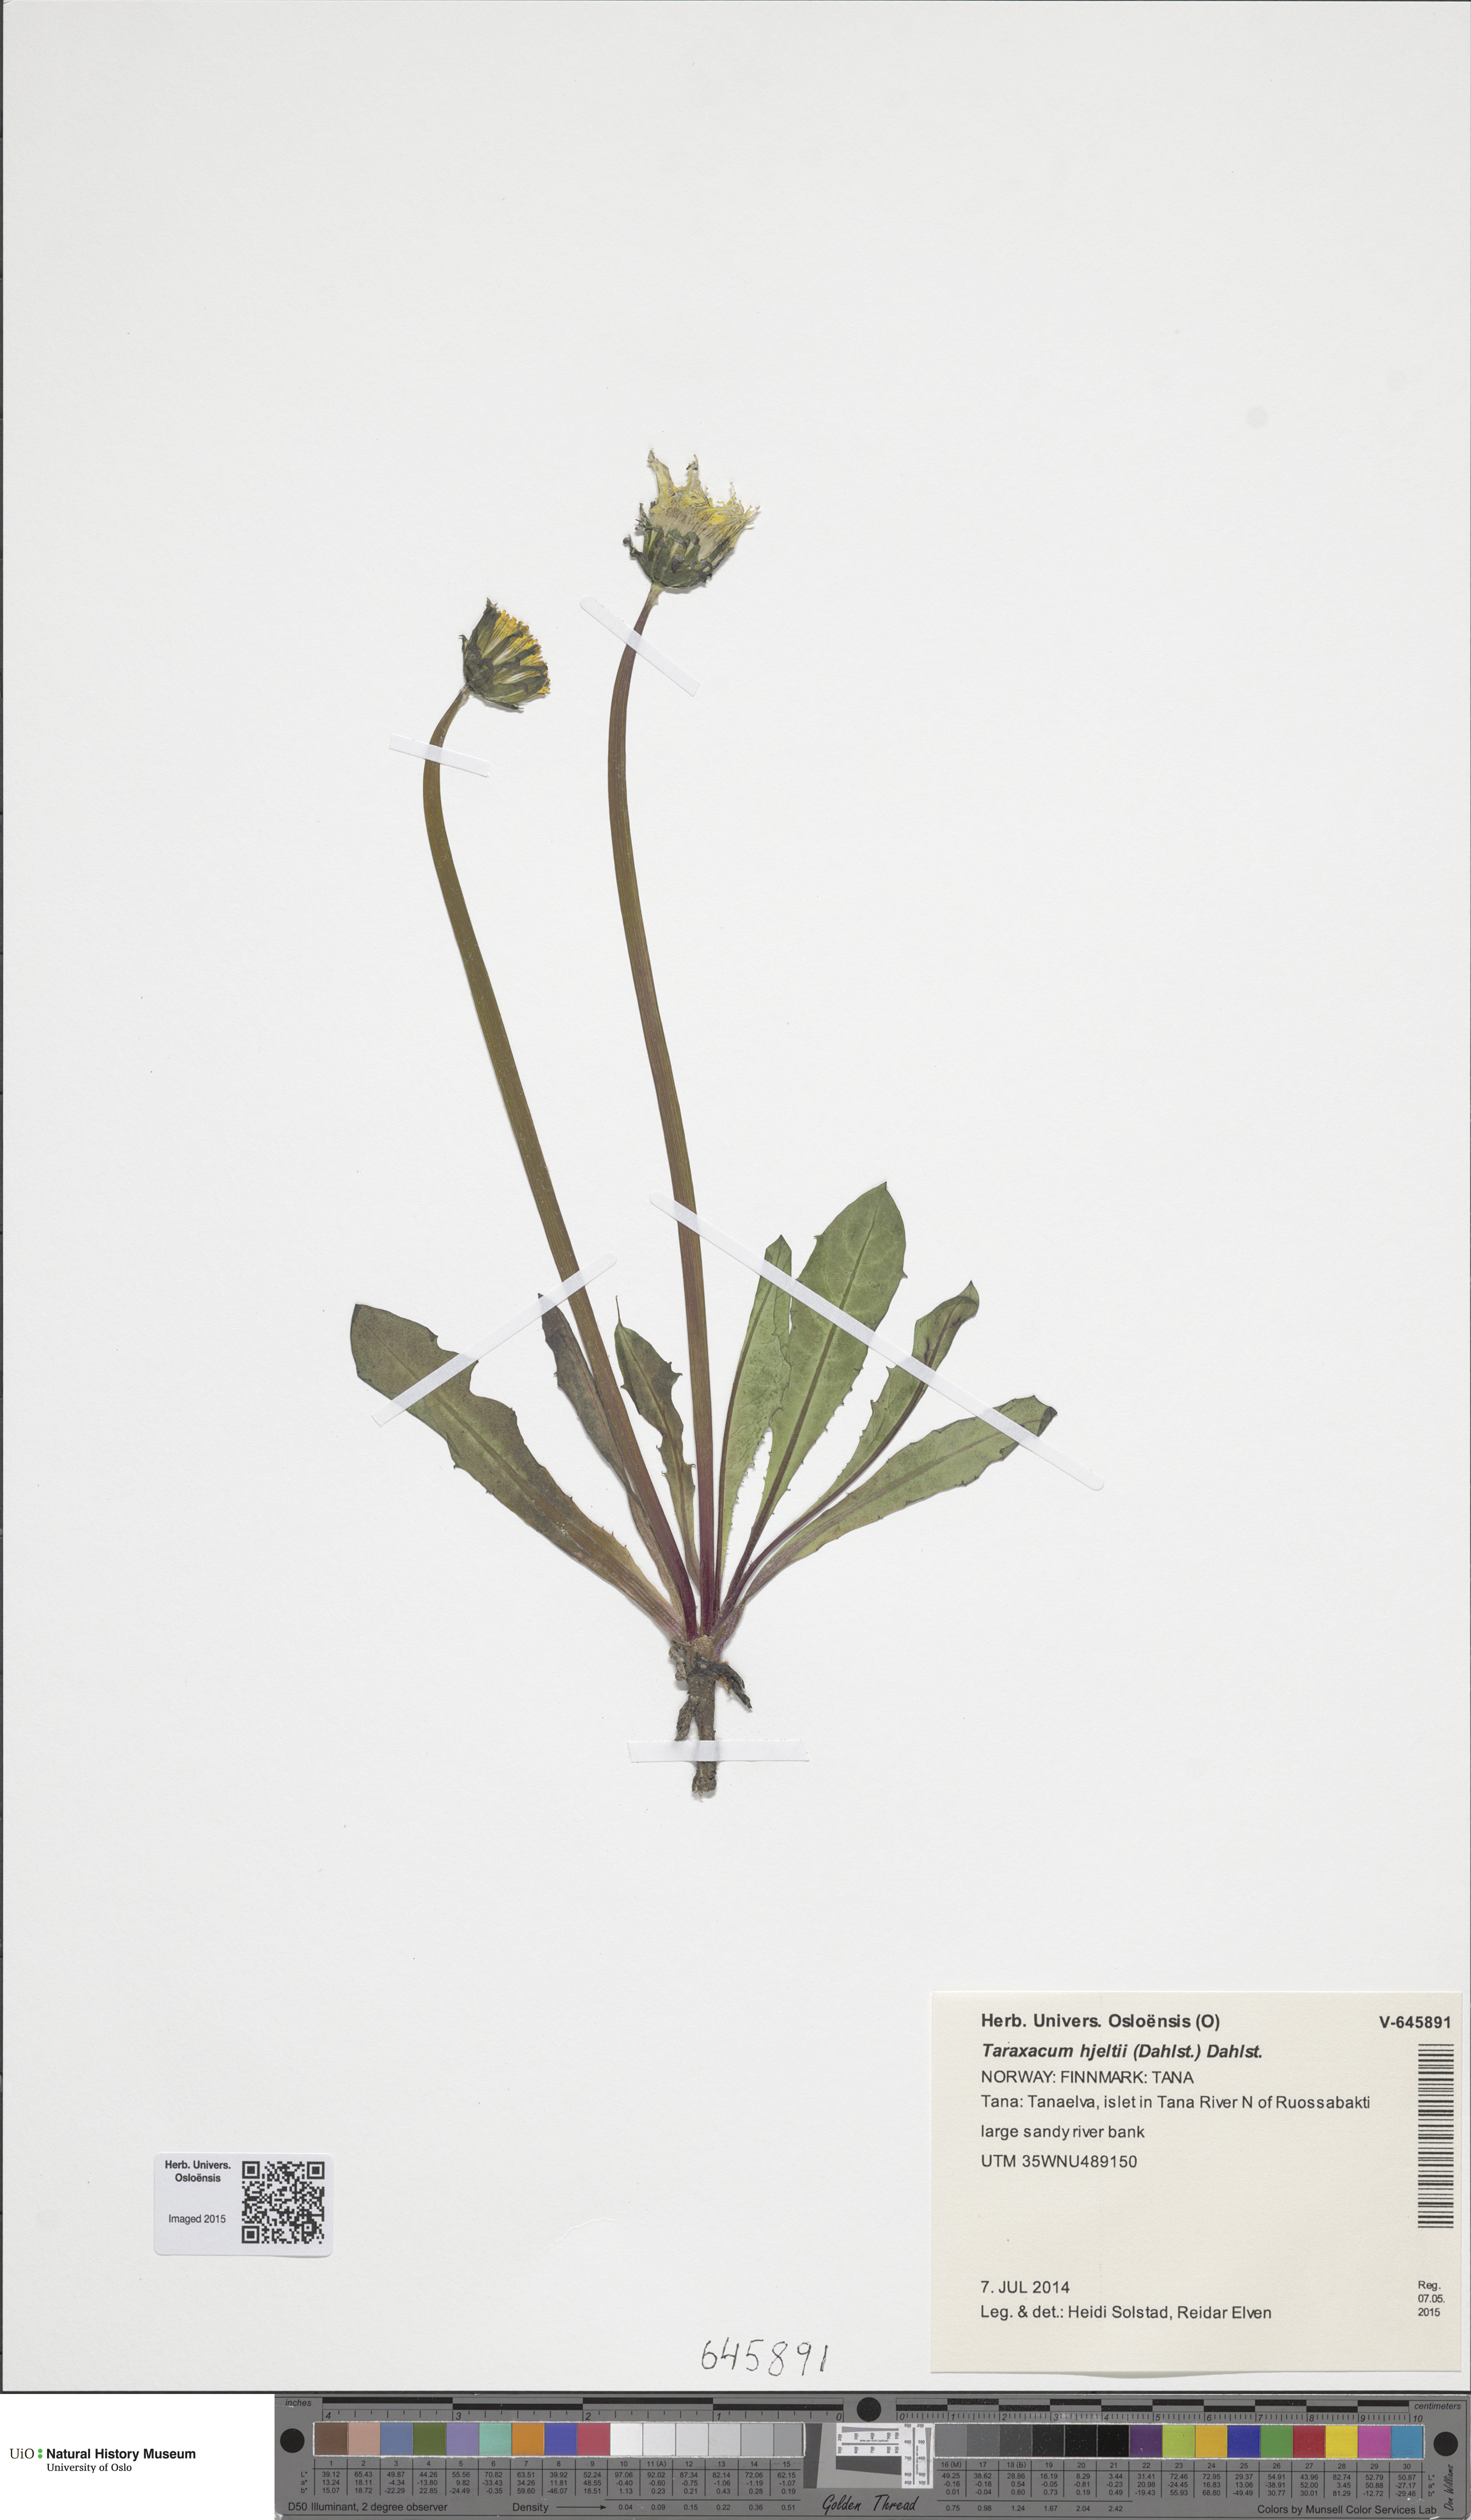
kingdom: Plantae
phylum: Tracheophyta
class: Magnoliopsida
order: Asterales
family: Asteraceae
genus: Taraxacum
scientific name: Taraxacum hjeltii
